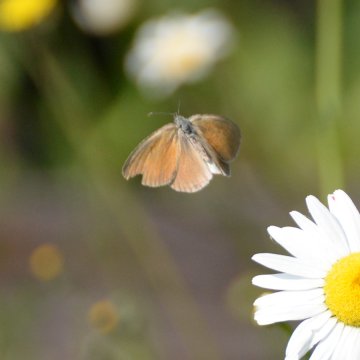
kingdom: Animalia
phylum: Arthropoda
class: Insecta
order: Lepidoptera
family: Nymphalidae
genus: Coenonympha
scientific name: Coenonympha tullia
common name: Large Heath
